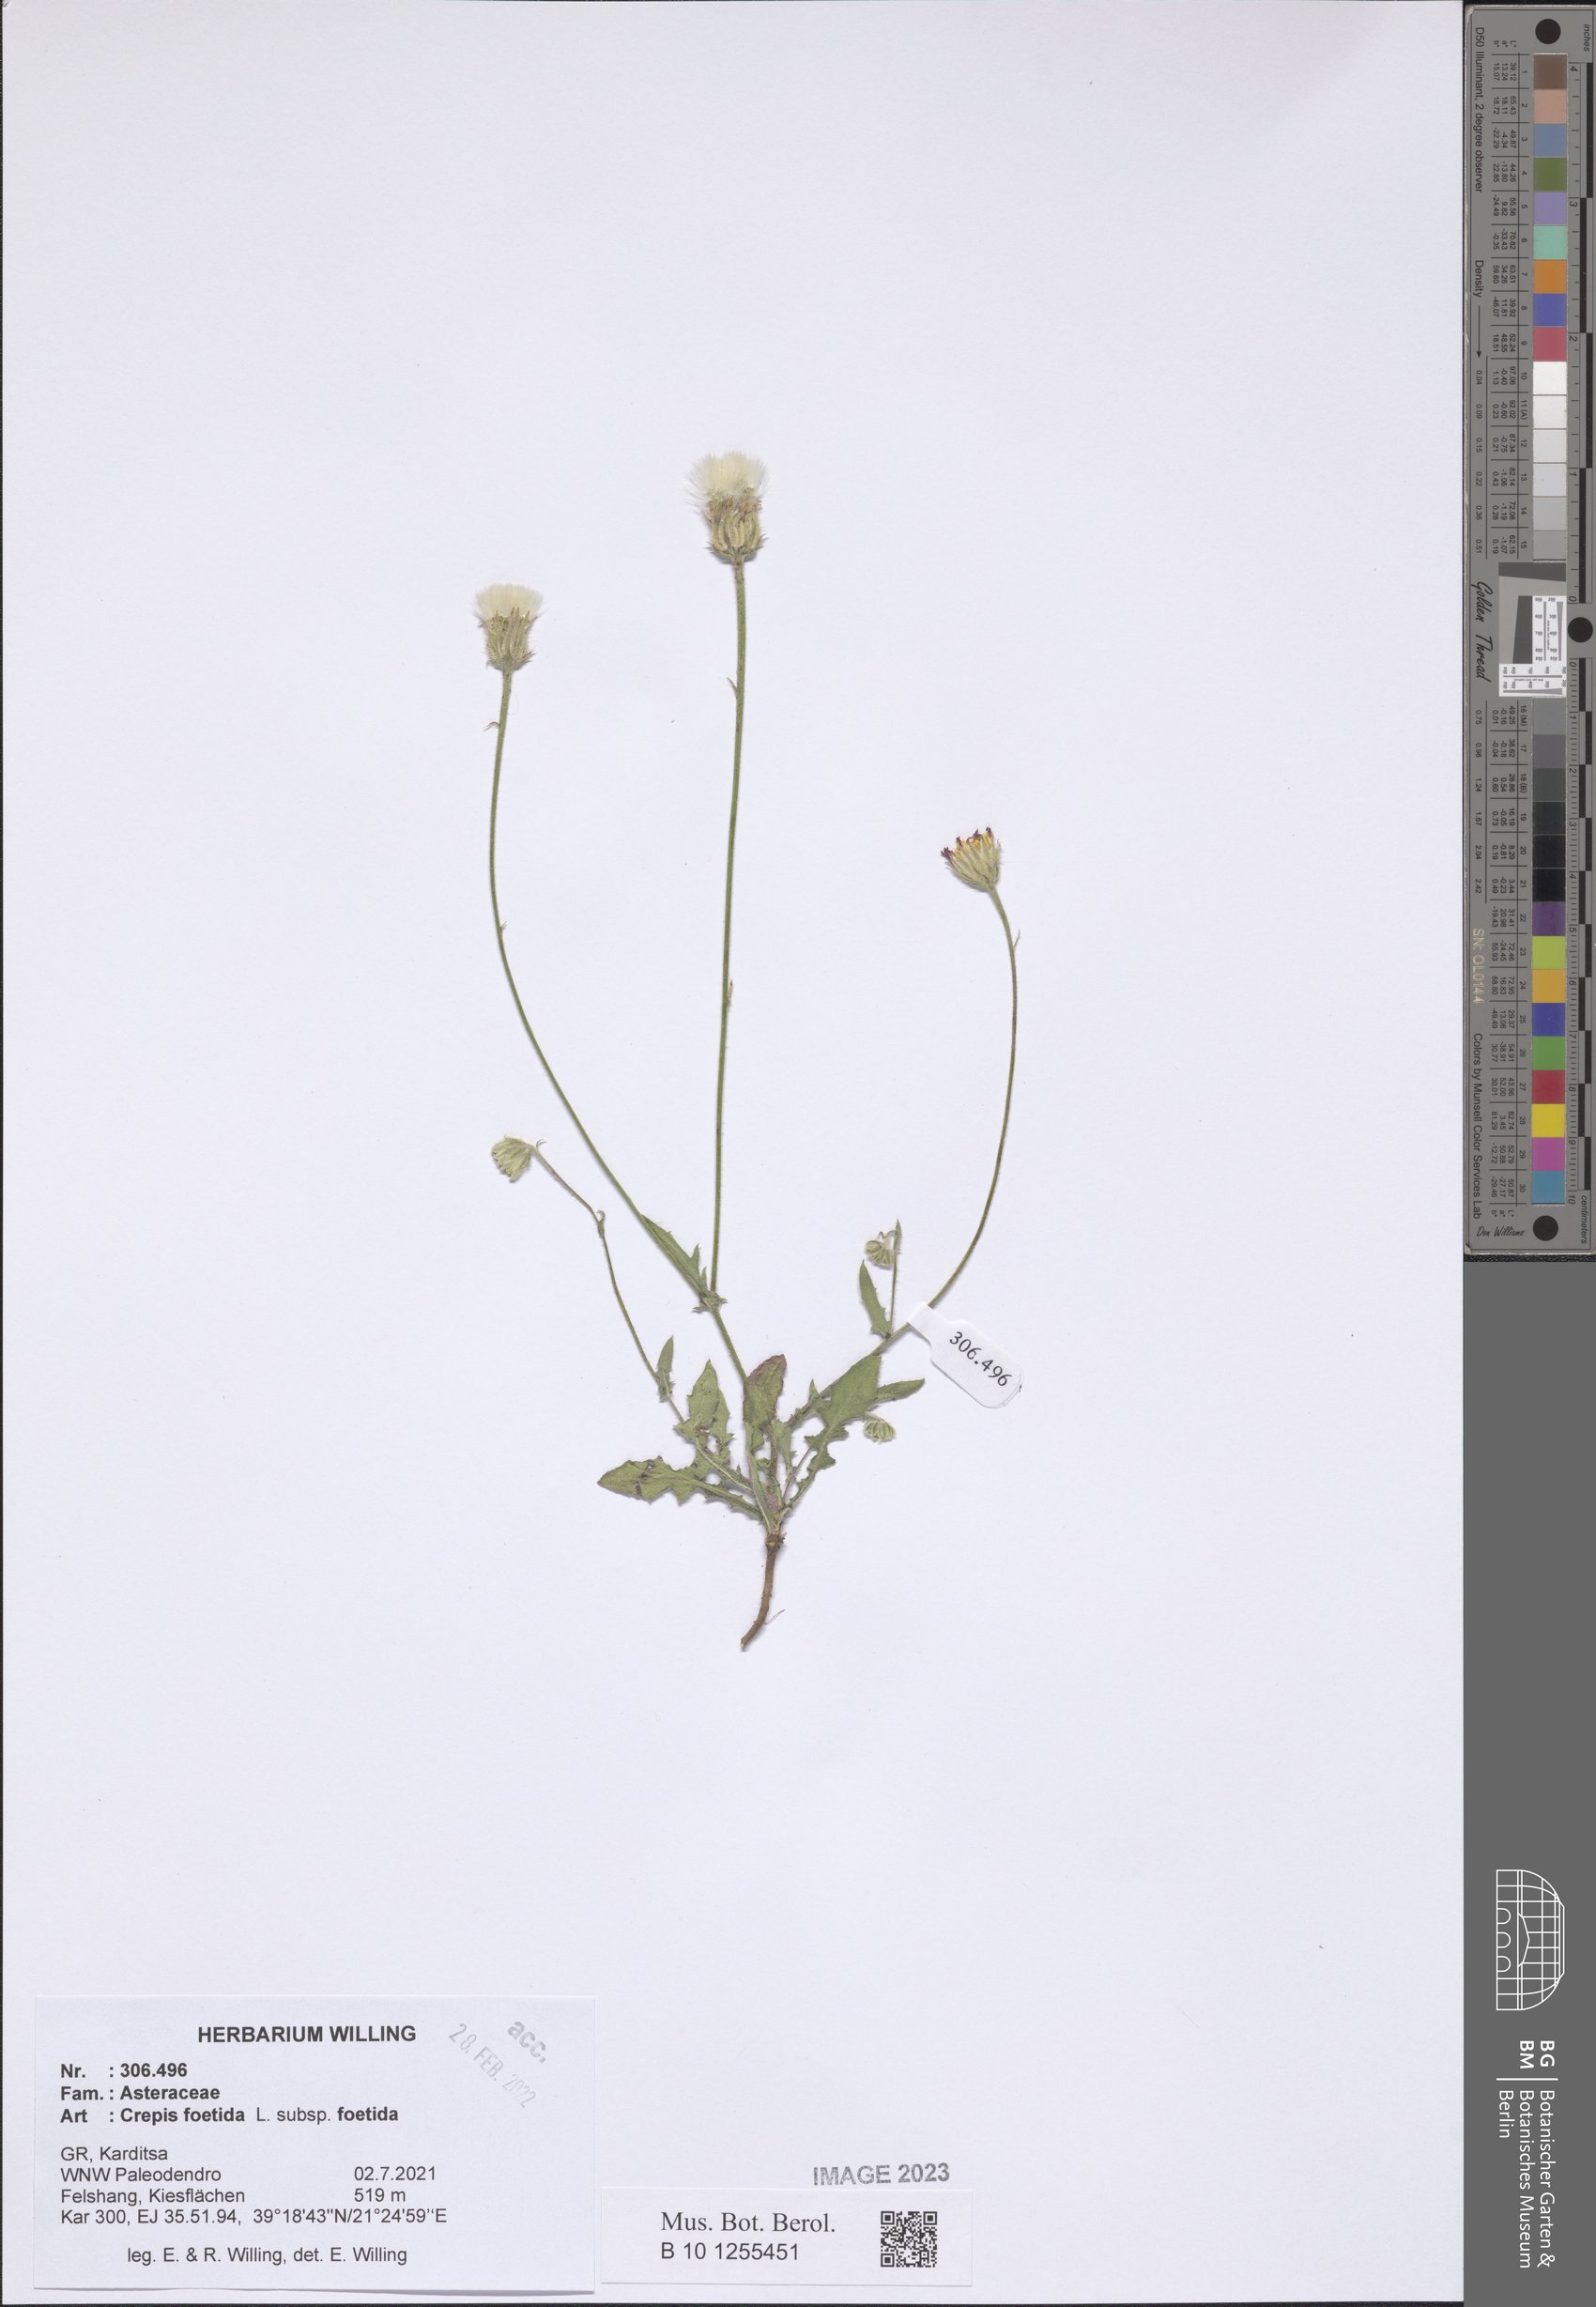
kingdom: Plantae
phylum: Tracheophyta
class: Magnoliopsida
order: Asterales
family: Asteraceae
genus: Crepis
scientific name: Crepis foetida
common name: Stinking hawk's-beard
